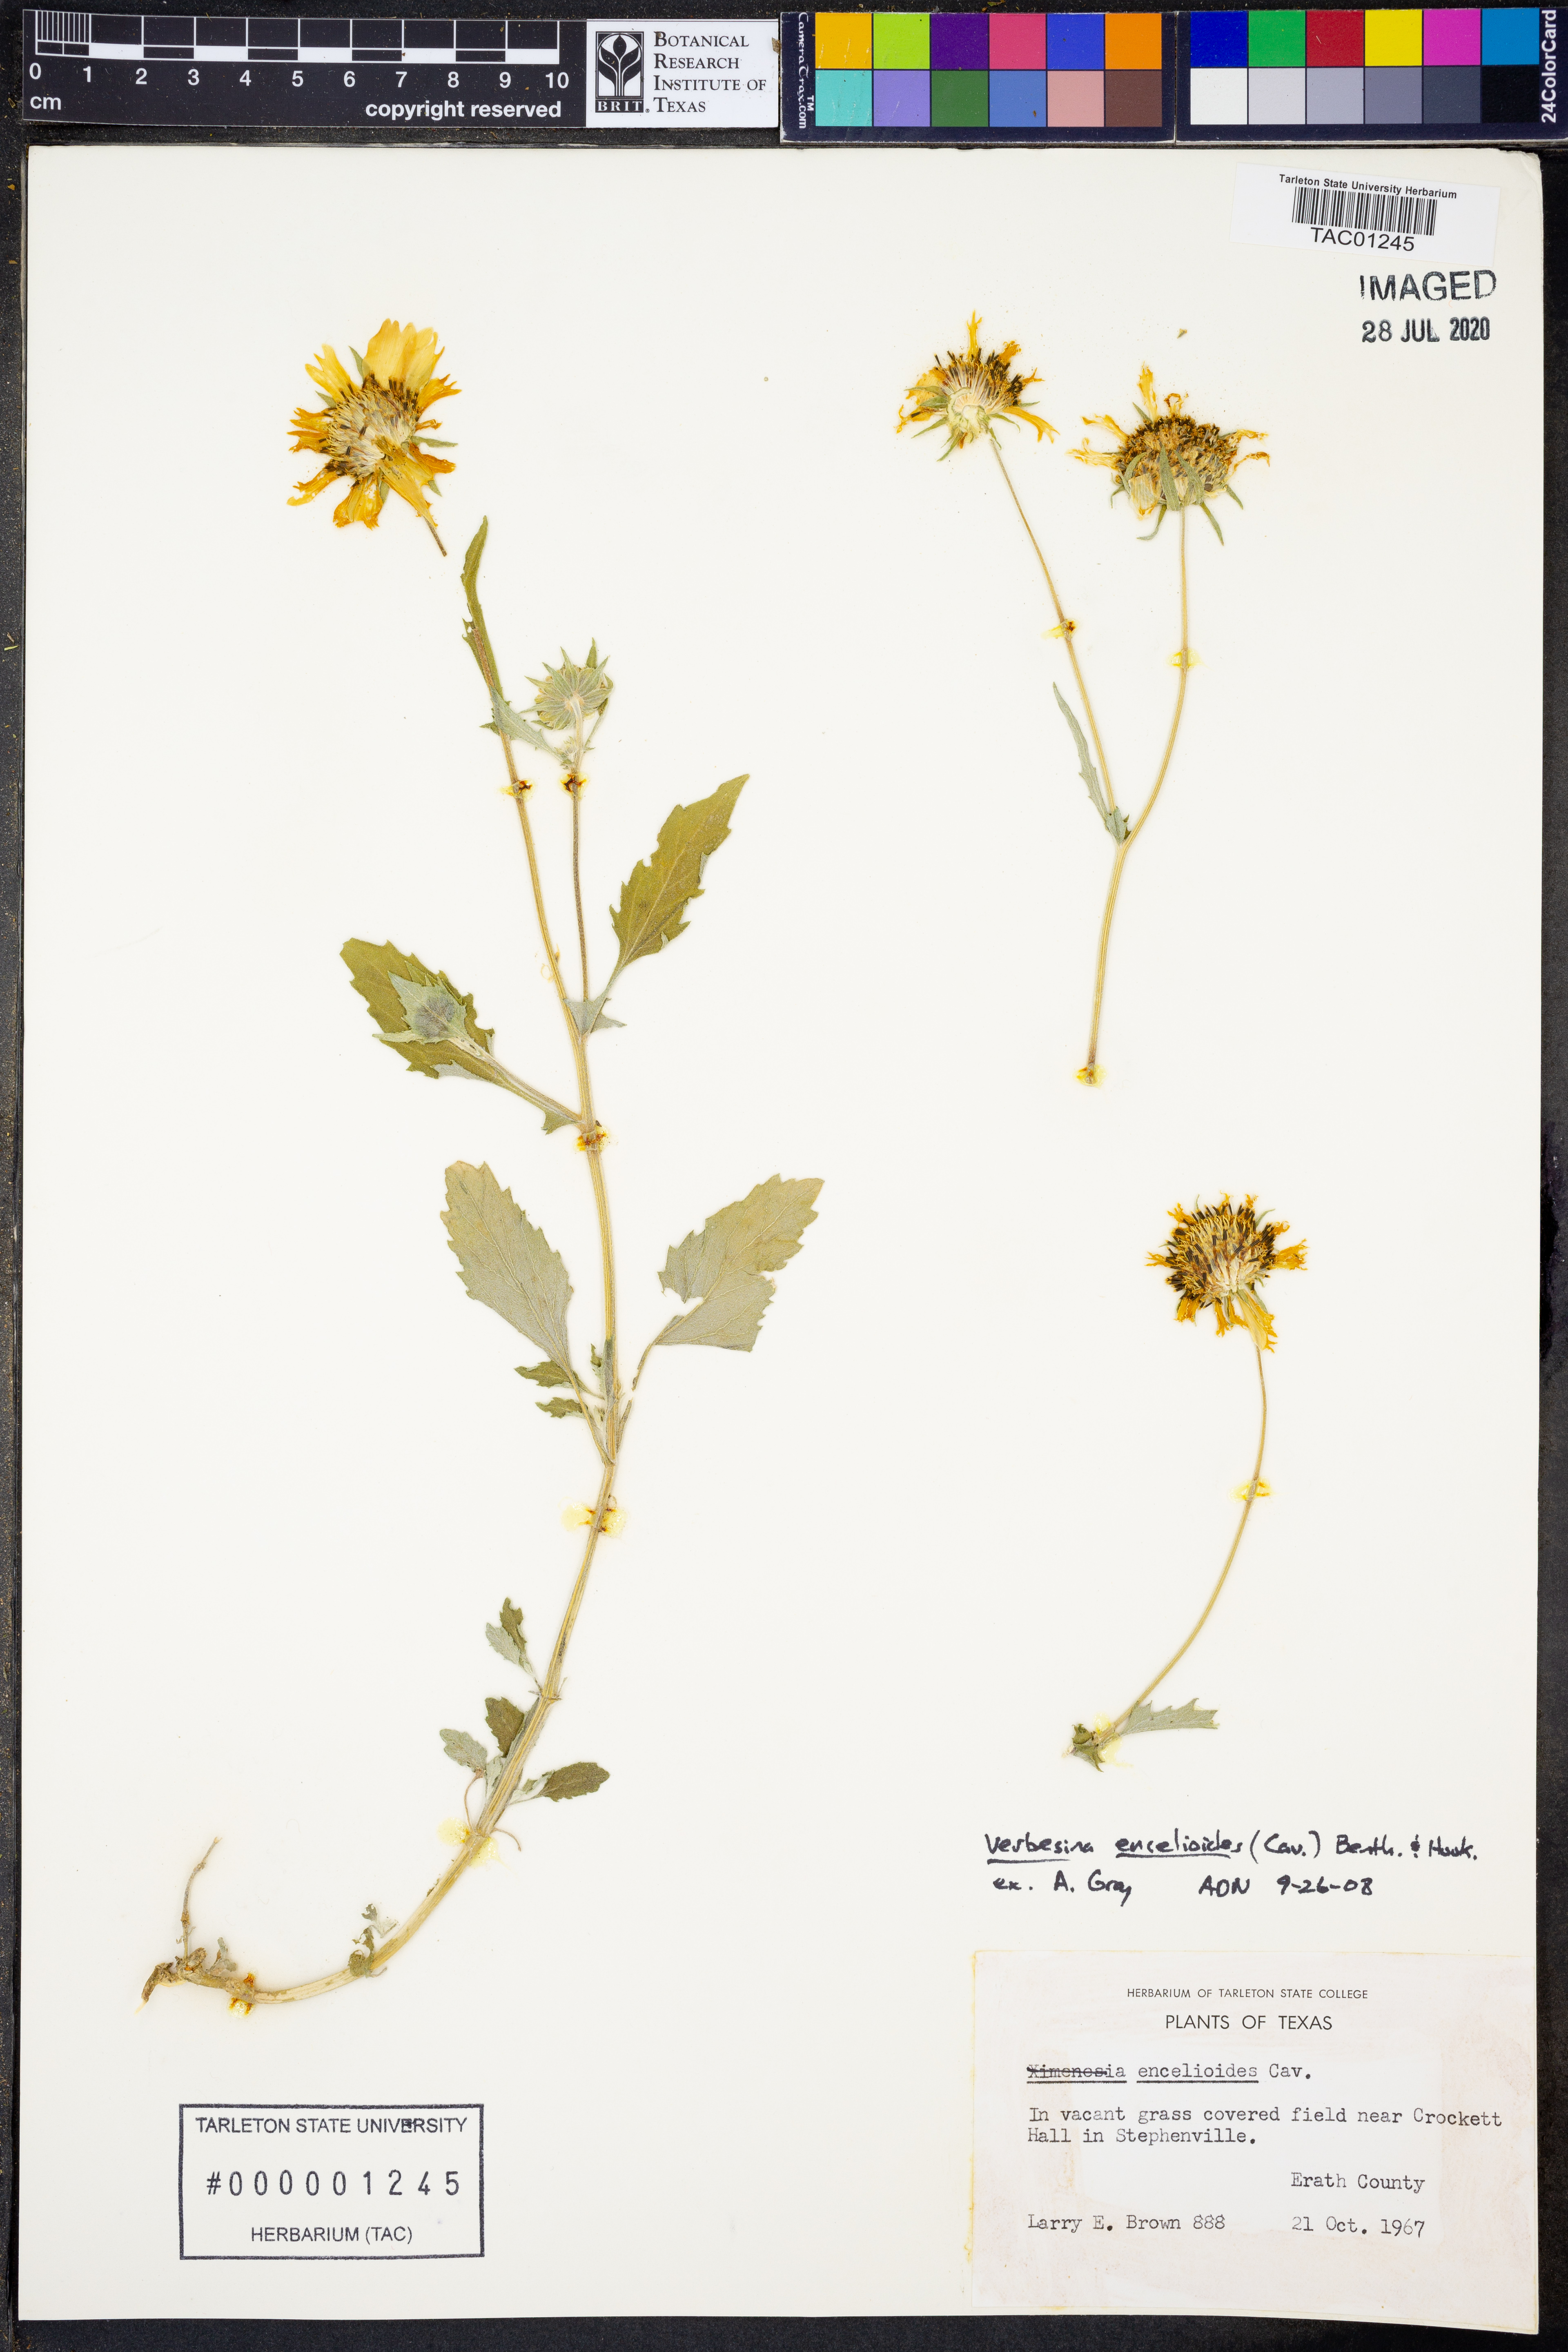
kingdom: Plantae
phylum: Tracheophyta
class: Magnoliopsida
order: Asterales
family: Asteraceae
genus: Verbesina
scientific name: Verbesina encelioides
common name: Golden crownbeard
